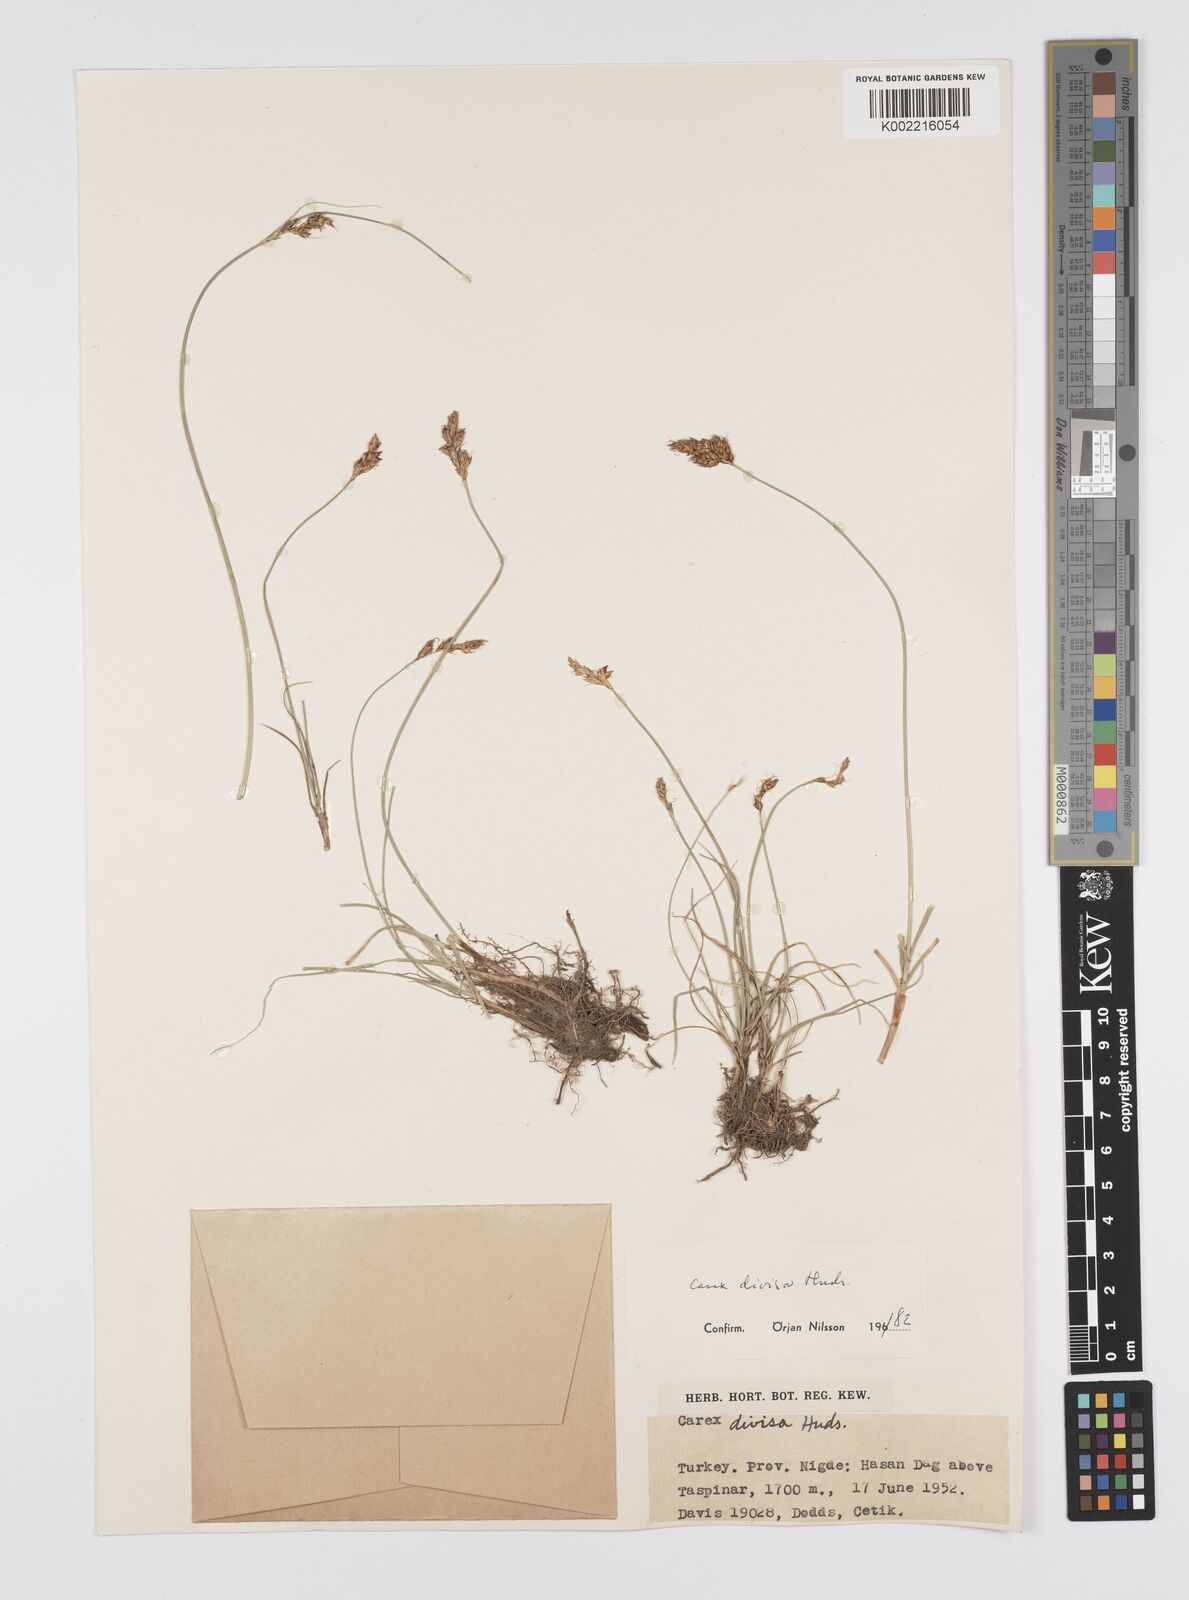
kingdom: Plantae
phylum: Tracheophyta
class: Liliopsida
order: Poales
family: Cyperaceae
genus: Carex
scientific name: Carex divisa
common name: Divided sedge
